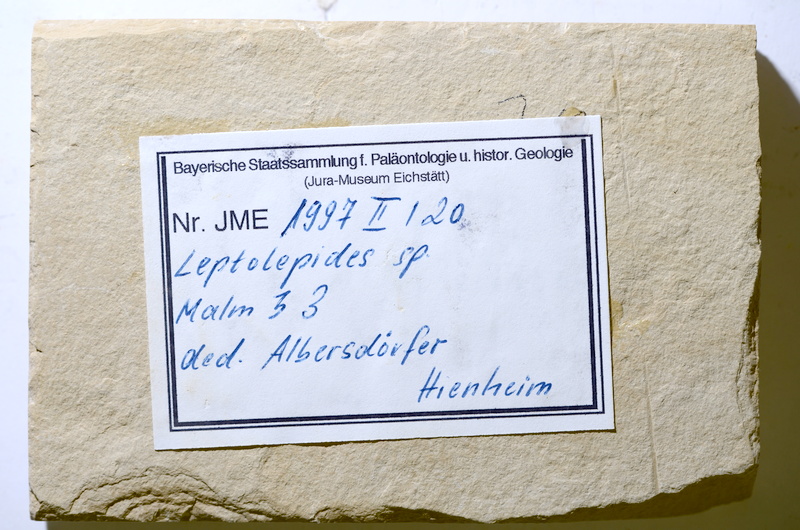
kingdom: Animalia
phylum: Chordata
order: Salmoniformes
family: Orthogonikleithridae
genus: Leptolepides
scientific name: Leptolepides
